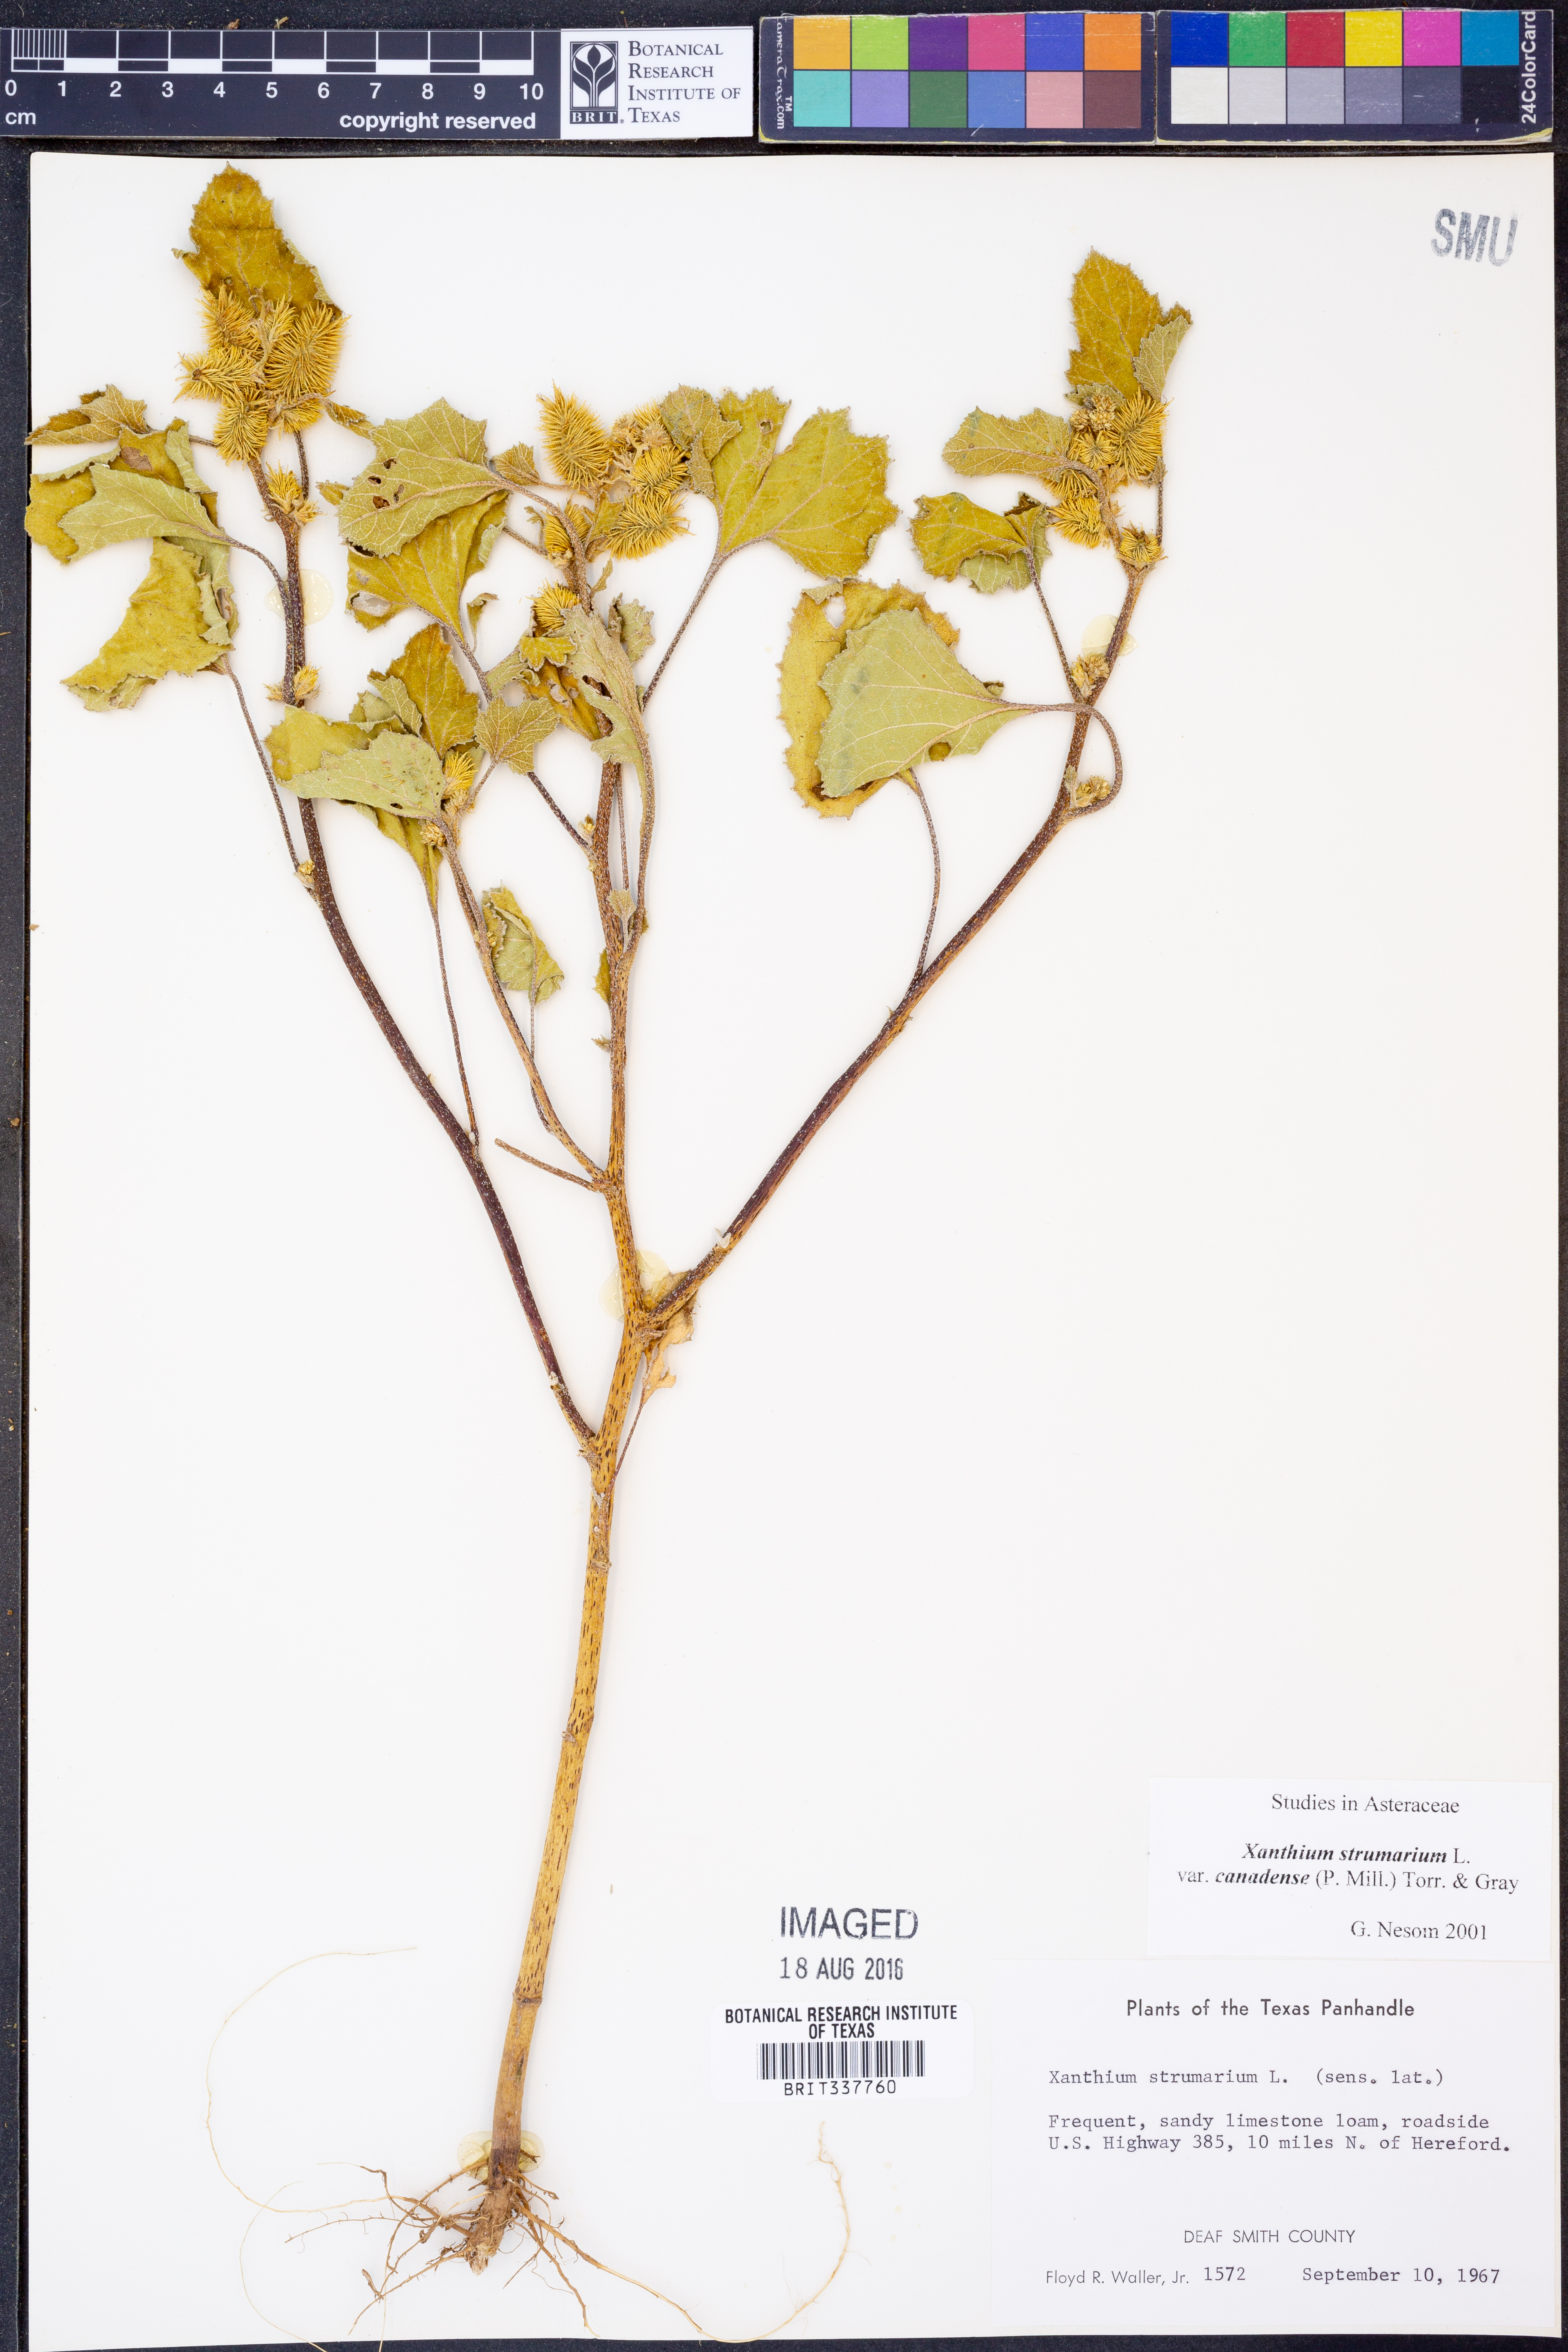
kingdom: Plantae
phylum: Tracheophyta
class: Magnoliopsida
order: Asterales
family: Asteraceae
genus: Xanthium
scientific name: Xanthium orientale
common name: Californian burr
